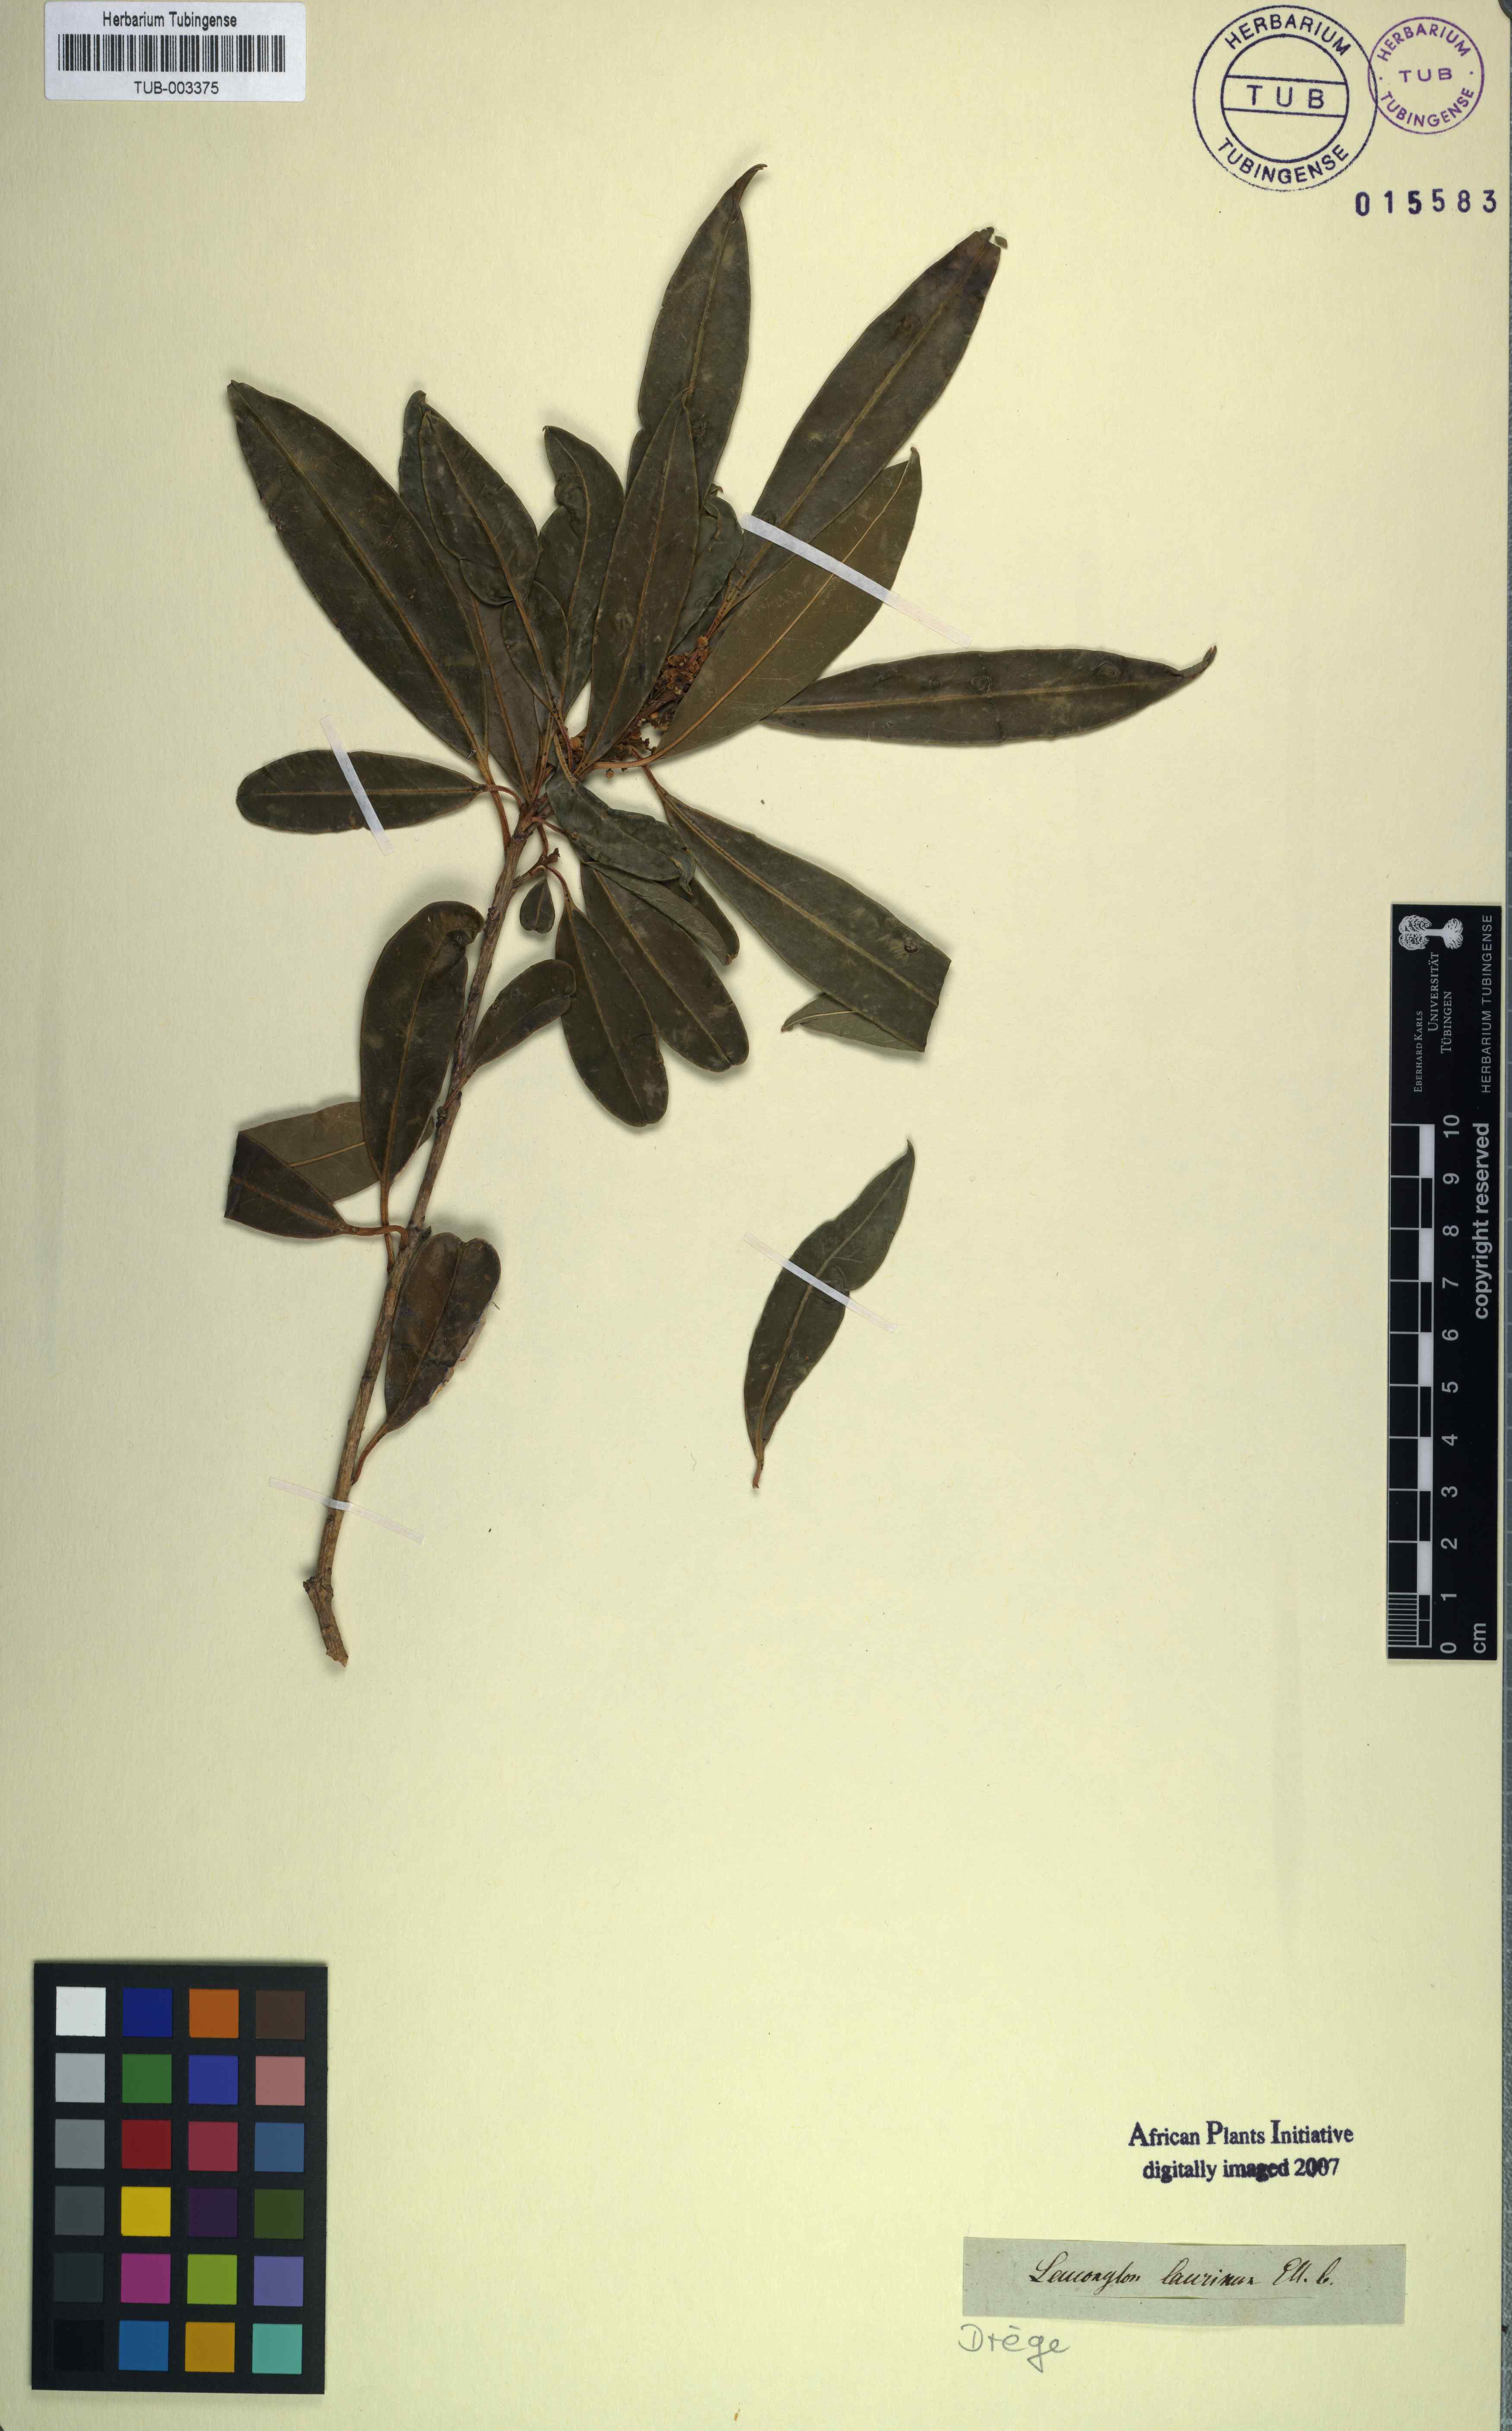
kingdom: Plantae
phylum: Tracheophyta
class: Magnoliopsida
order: Ericales
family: Ebenaceae
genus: Diospyros
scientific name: Diospyros Leucoxylum laurinum
